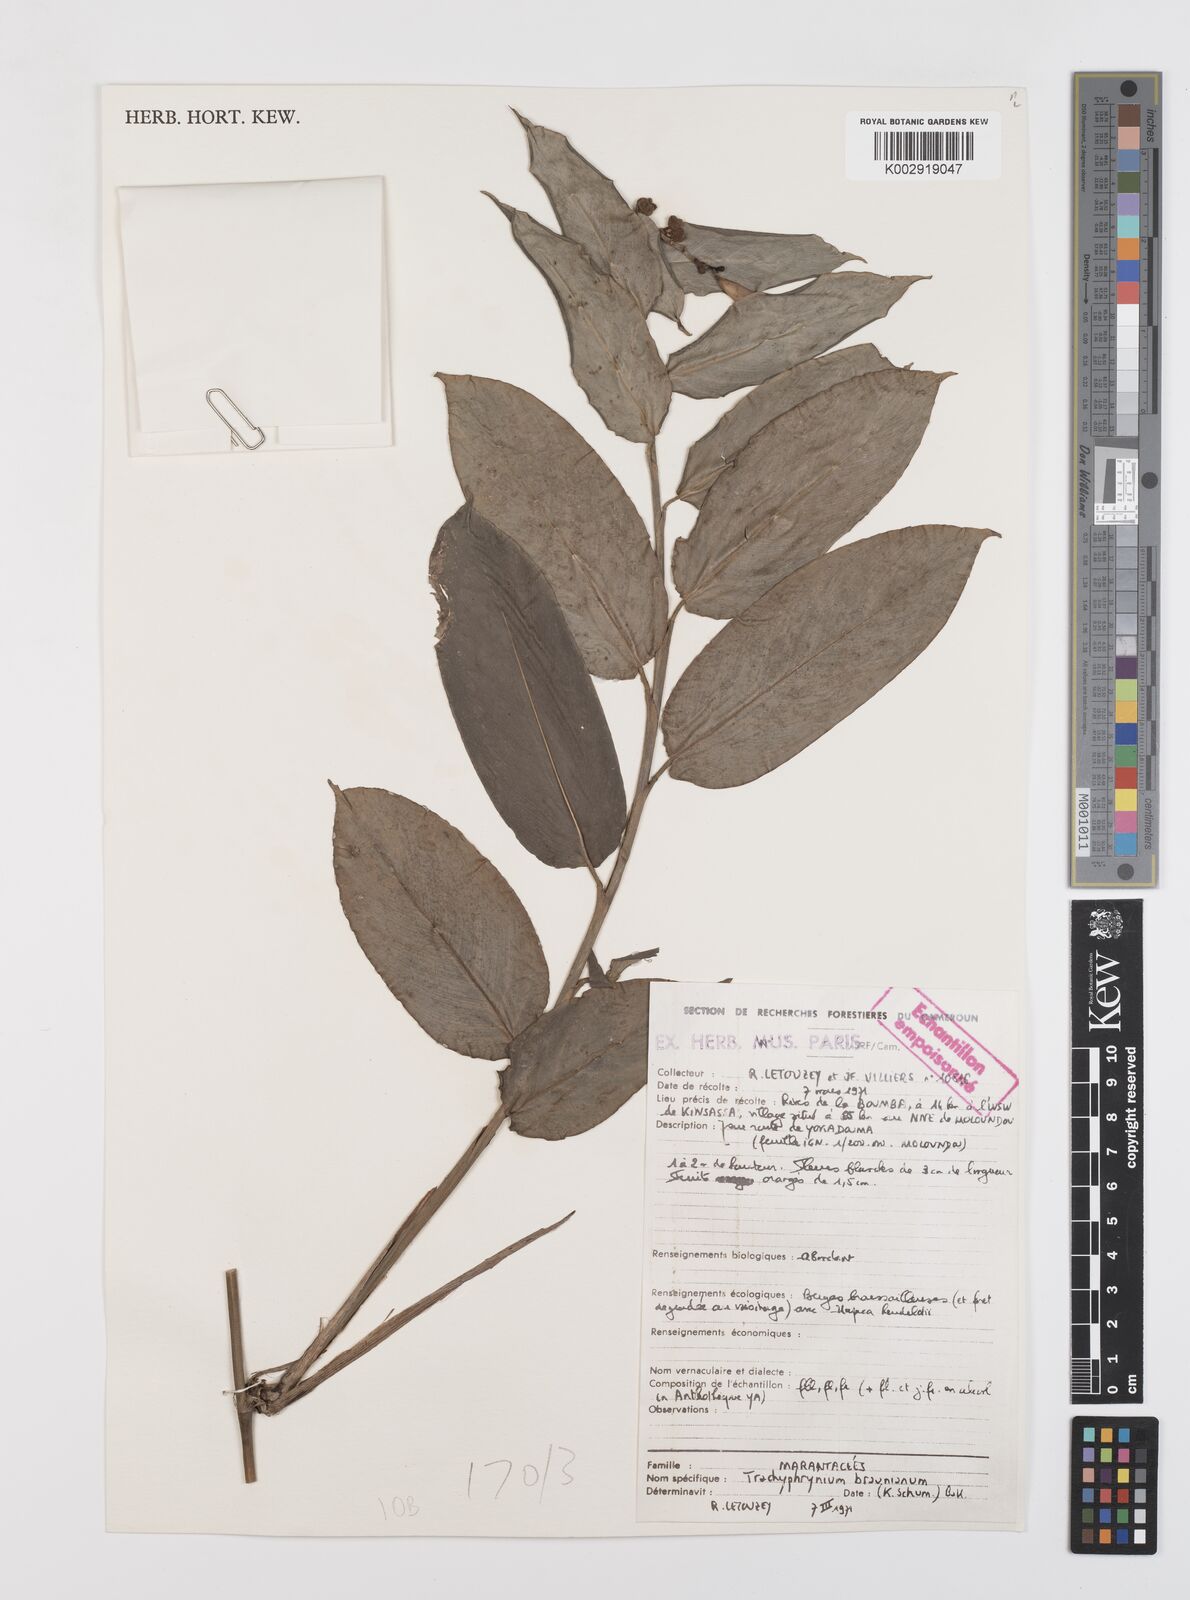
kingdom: Plantae
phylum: Tracheophyta
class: Liliopsida
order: Zingiberales
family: Marantaceae
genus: Trachyphrynium
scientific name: Trachyphrynium braunianum
